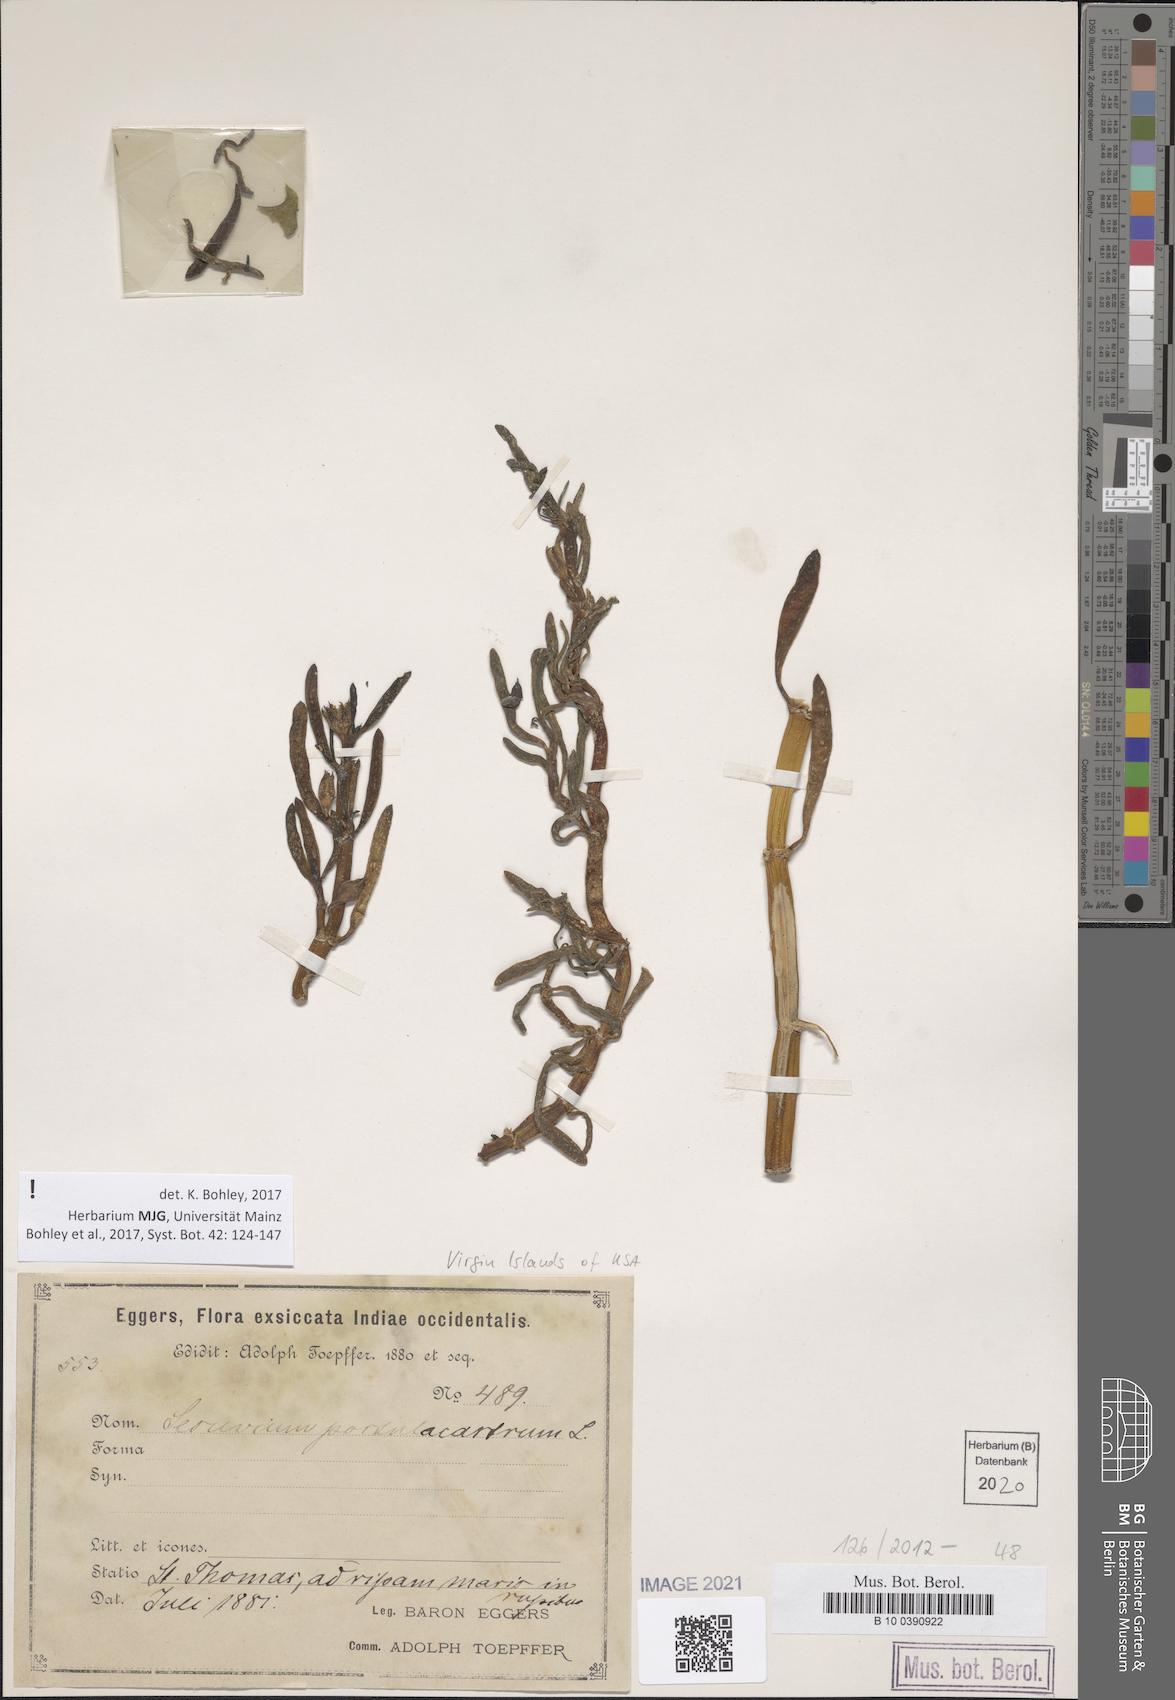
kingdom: Plantae
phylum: Tracheophyta
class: Magnoliopsida
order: Caryophyllales
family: Aizoaceae
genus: Sesuvium
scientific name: Sesuvium portulacastrum
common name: Sea-purslane
